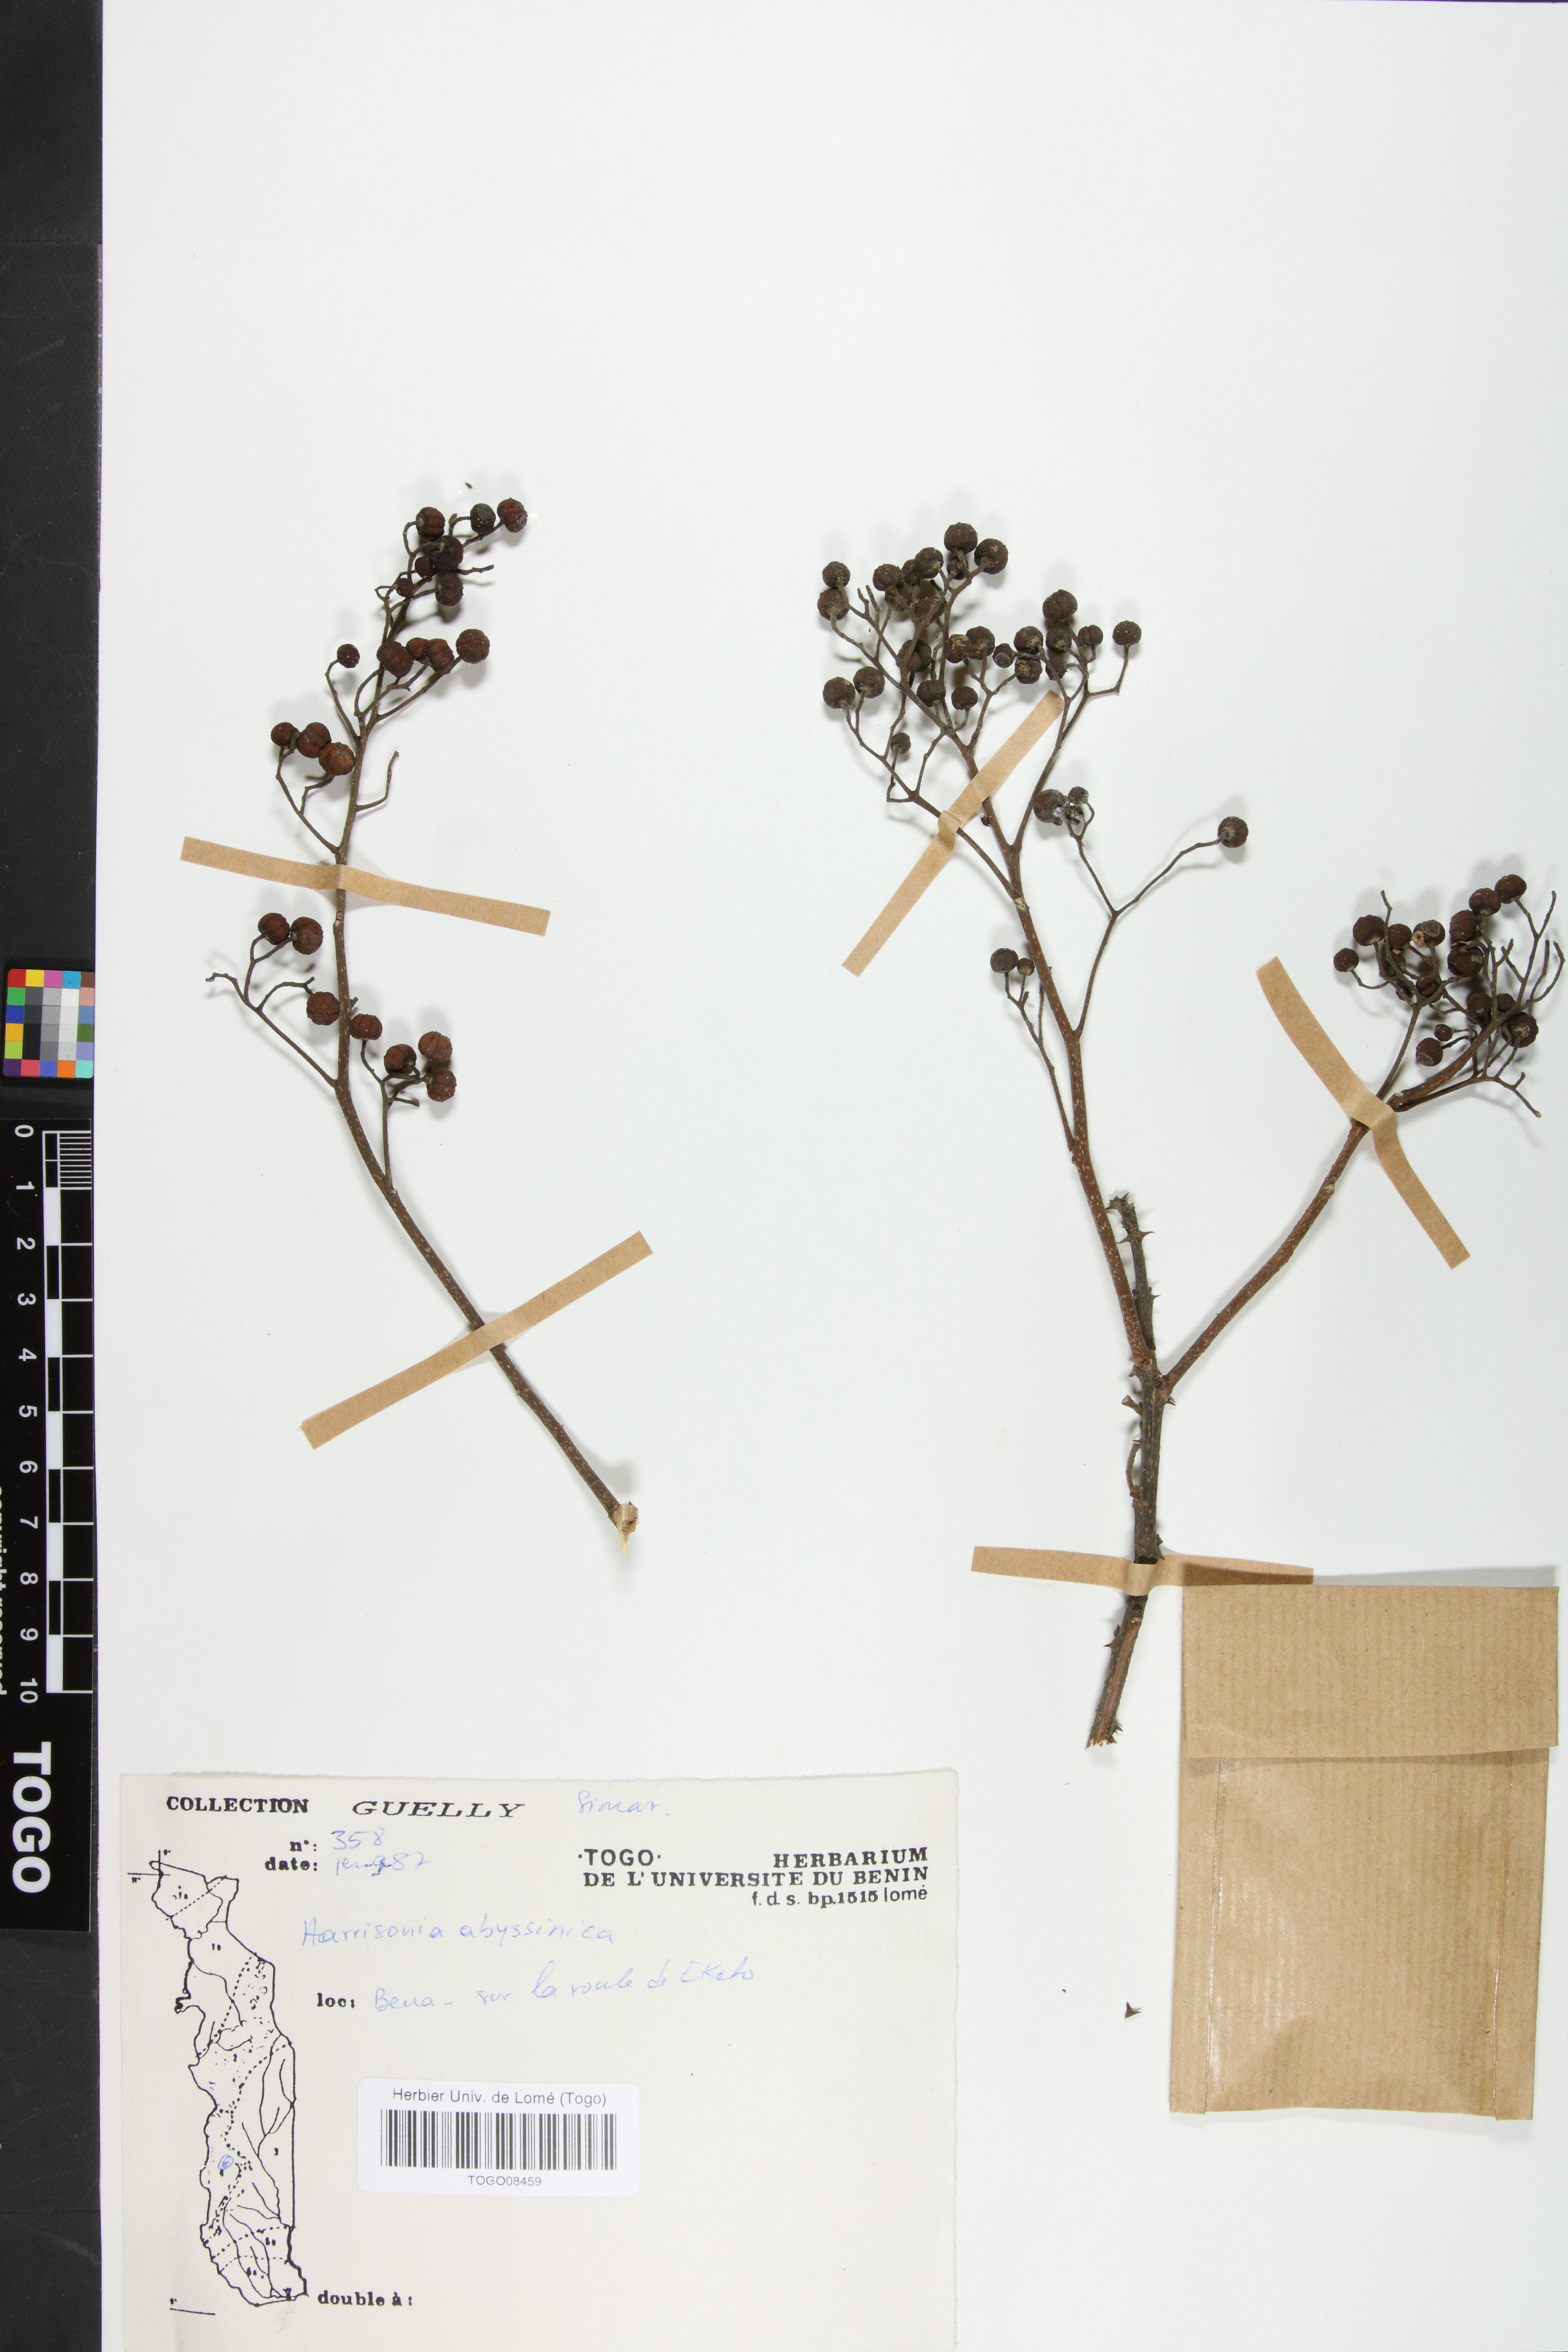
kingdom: Plantae
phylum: Tracheophyta
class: Magnoliopsida
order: Sapindales
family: Rutaceae
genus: Harrisonia
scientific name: Harrisonia abyssinica
